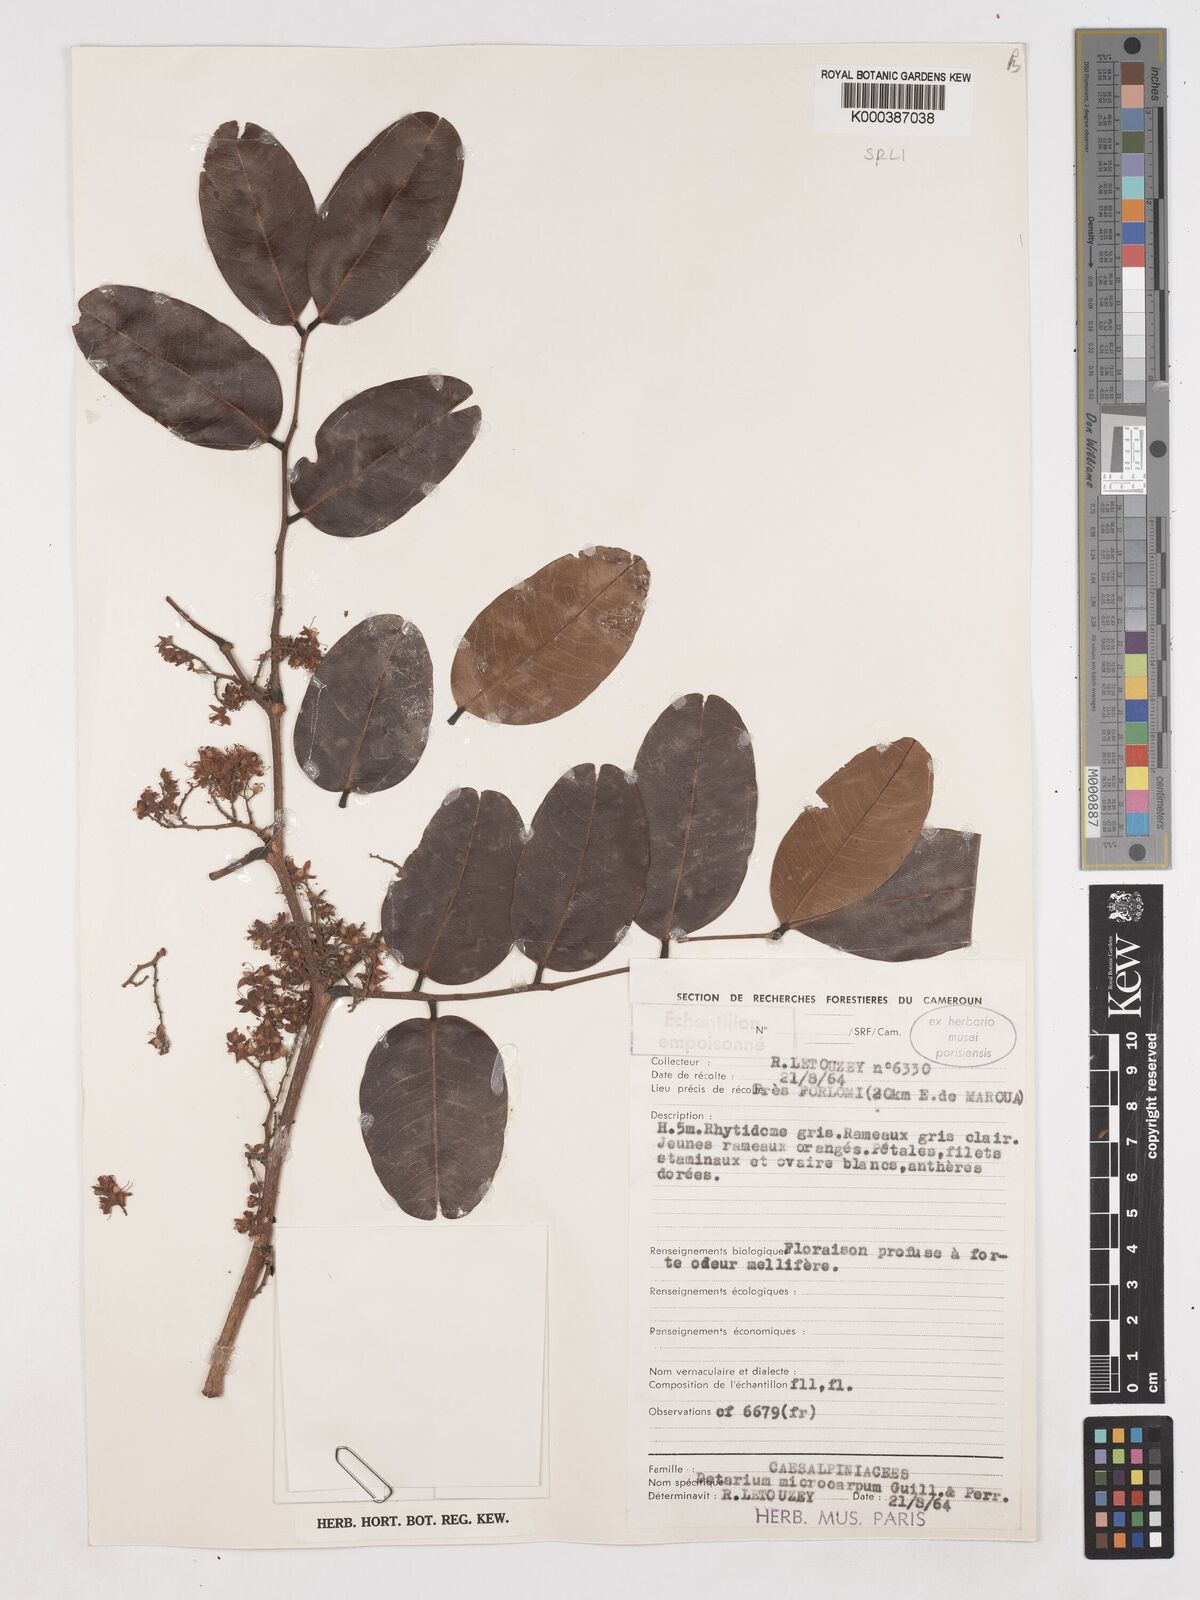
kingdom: Plantae
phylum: Tracheophyta
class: Magnoliopsida
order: Fabales
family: Fabaceae
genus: Detarium
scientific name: Detarium microcarpum
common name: Sweet dattock
